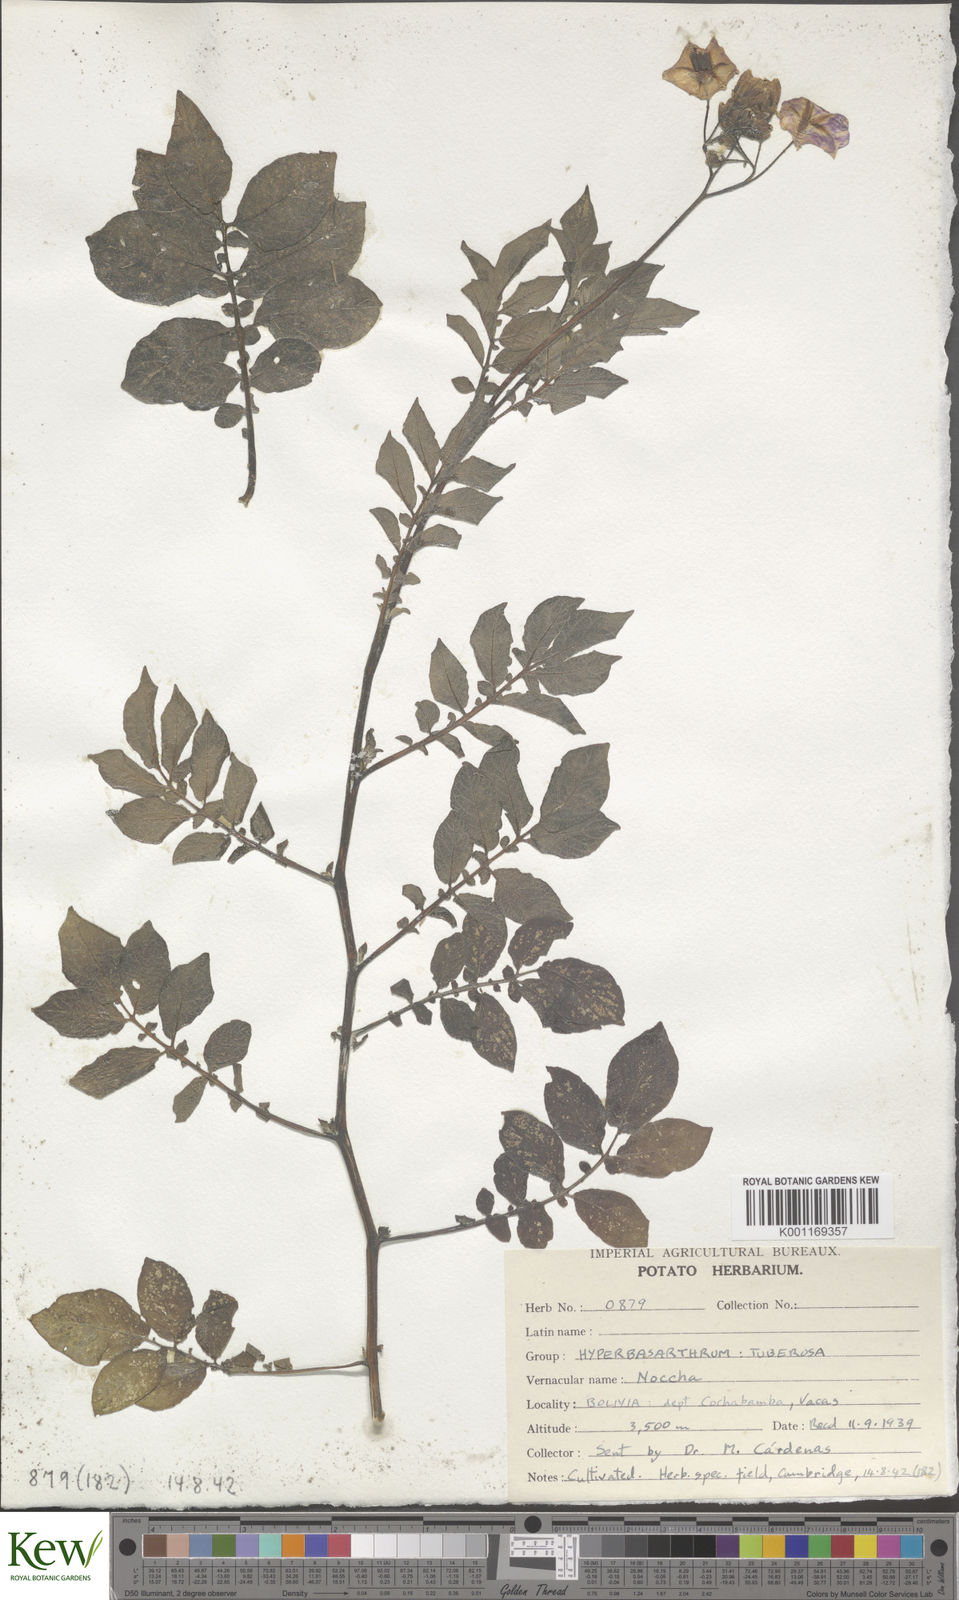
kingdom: Plantae
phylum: Tracheophyta
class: Magnoliopsida
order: Solanales
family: Solanaceae
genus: Solanum
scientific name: Solanum chaucha
